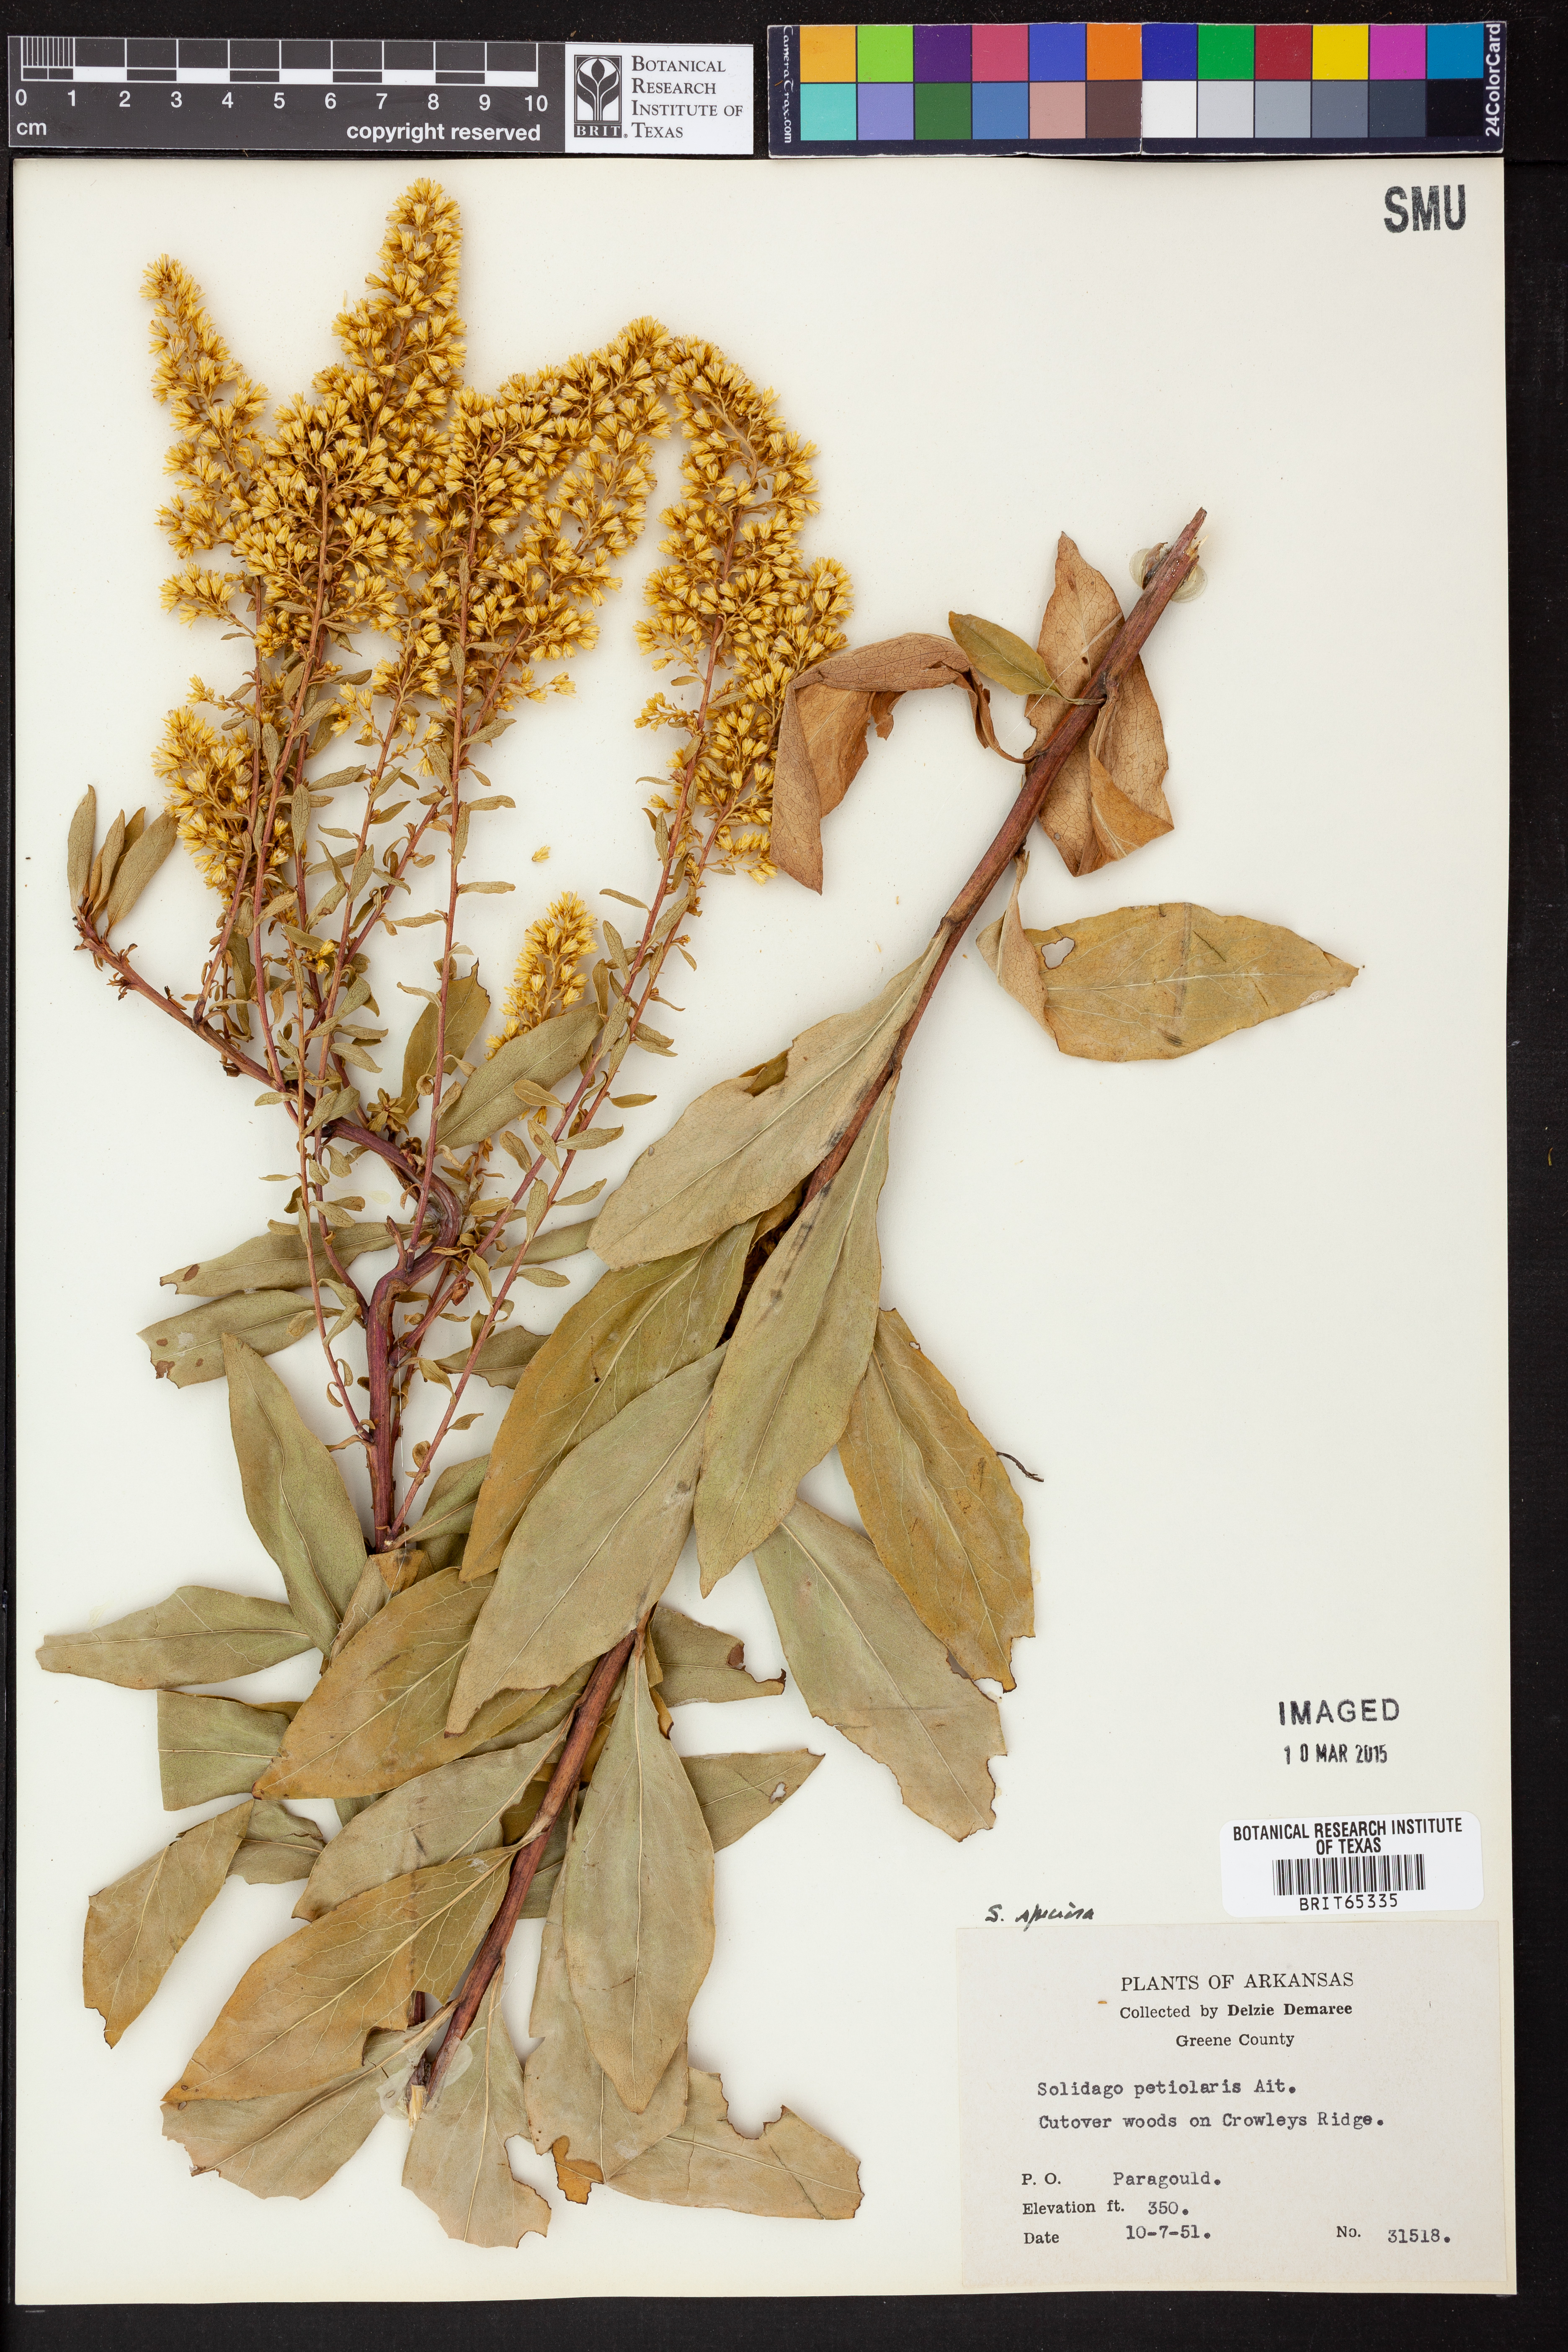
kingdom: Plantae
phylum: Tracheophyta
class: Magnoliopsida
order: Asterales
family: Asteraceae
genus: Solidago
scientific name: Solidago speciosa
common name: Showy goldenrod
